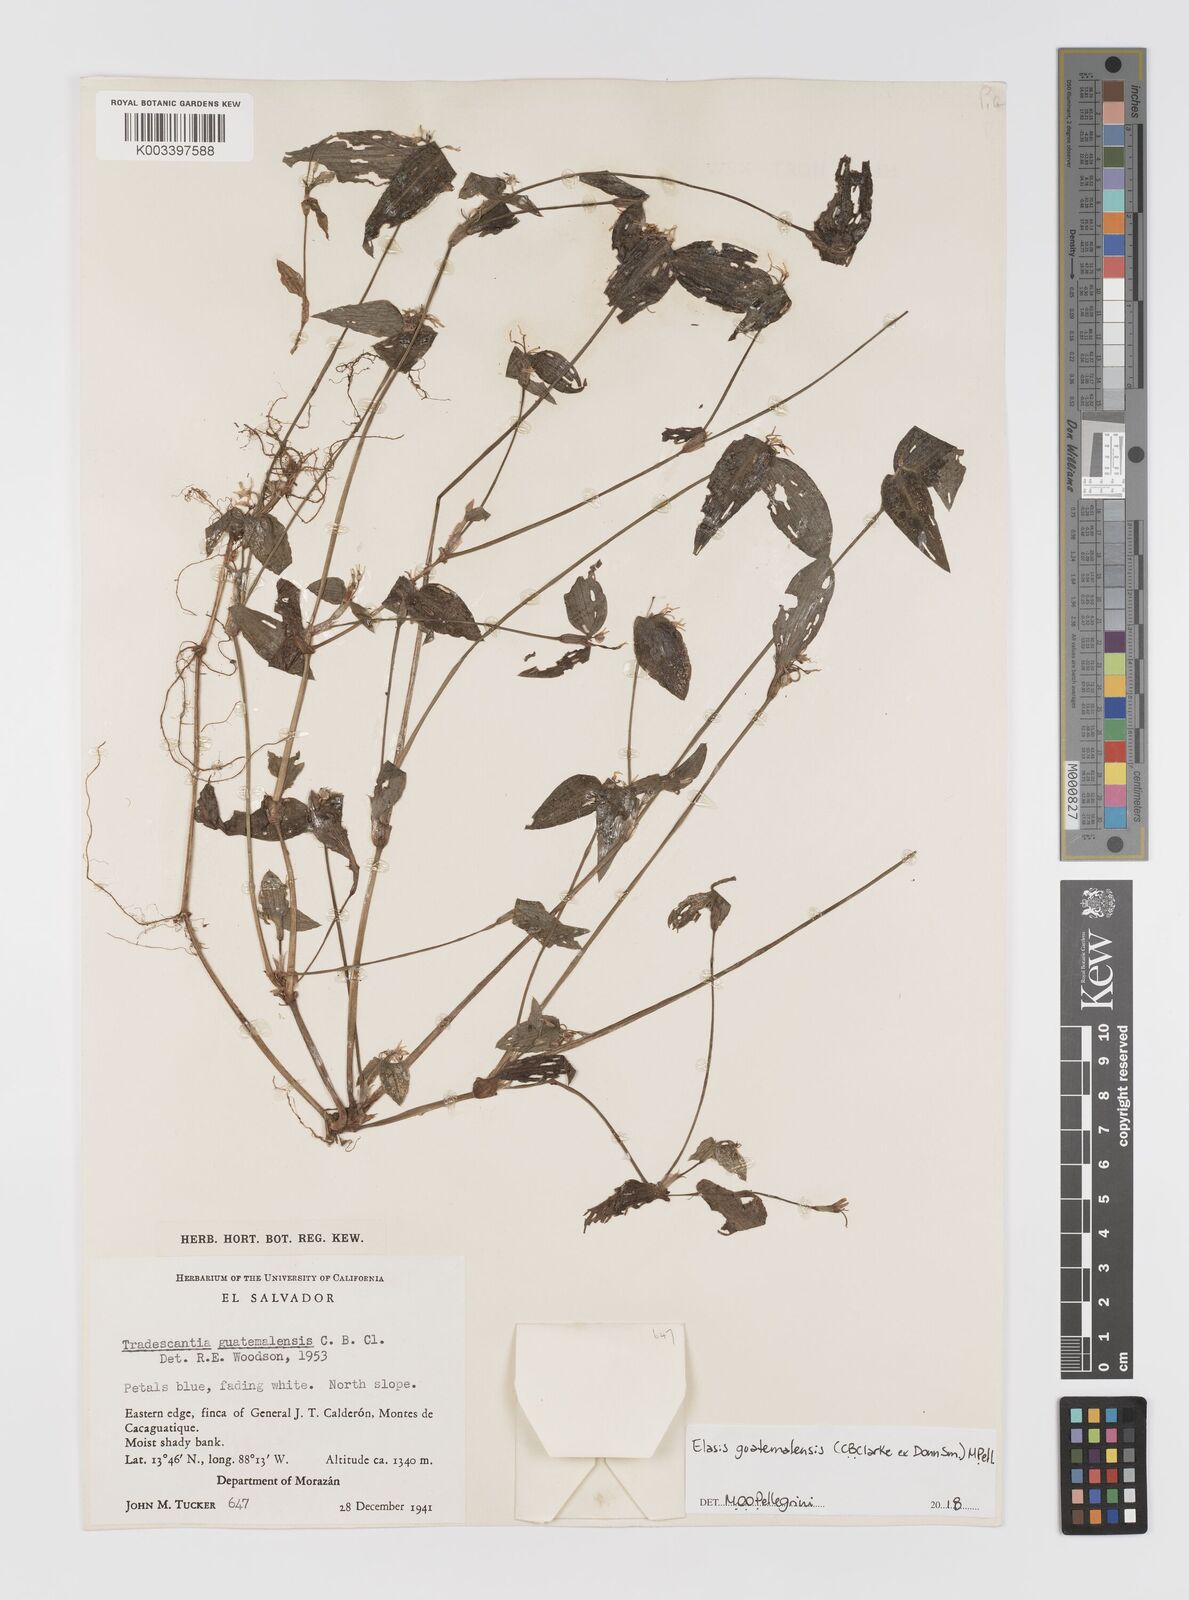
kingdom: Plantae
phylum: Tracheophyta
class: Liliopsida
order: Commelinales
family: Commelinaceae
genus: Elasis
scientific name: Elasis guatemalensis
